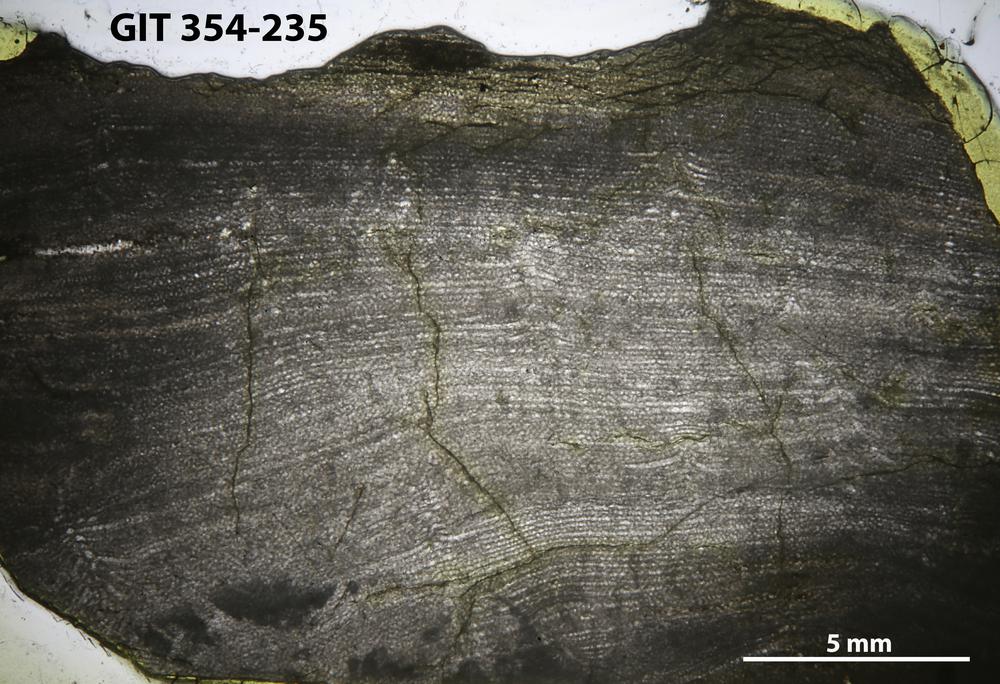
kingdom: Animalia
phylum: Porifera
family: Ecclimadictyidae
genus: Ecclimadictyon
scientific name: Ecclimadictyon Clathrodictyon microvesiculosum
